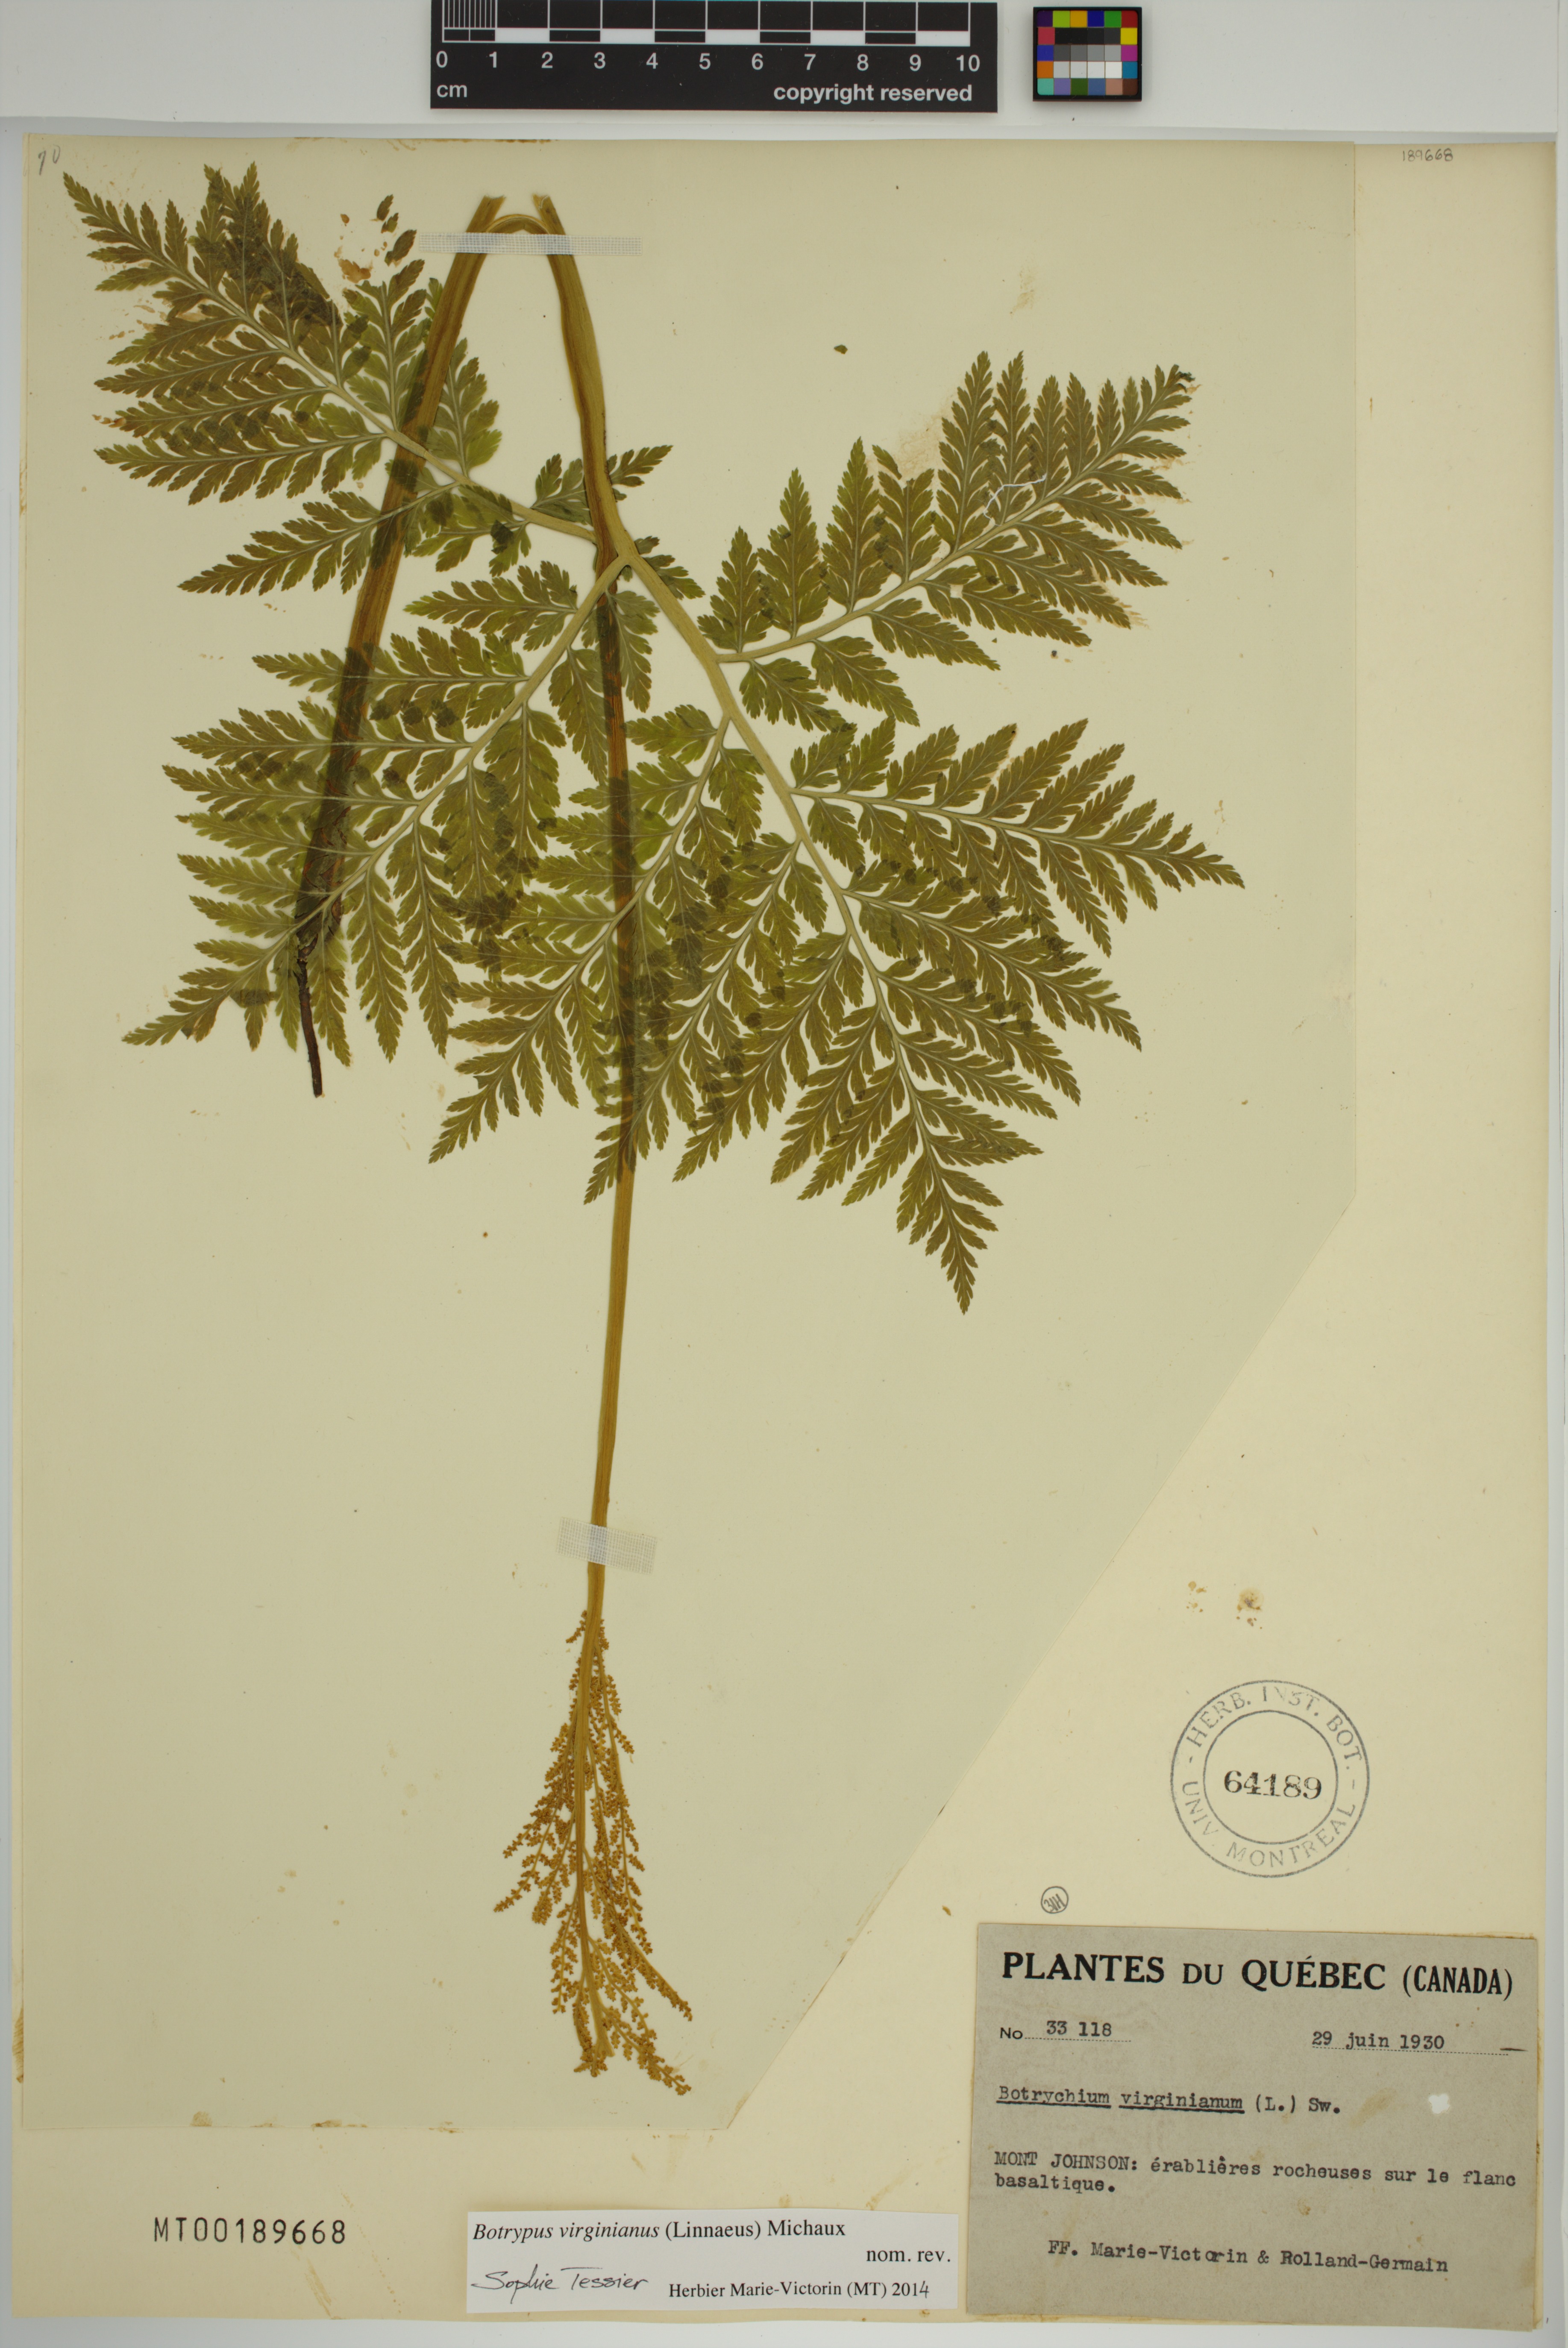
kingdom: Plantae
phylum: Tracheophyta
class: Polypodiopsida
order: Ophioglossales
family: Ophioglossaceae
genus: Botrypus
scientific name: Botrypus virginianus
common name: Common grapefern
